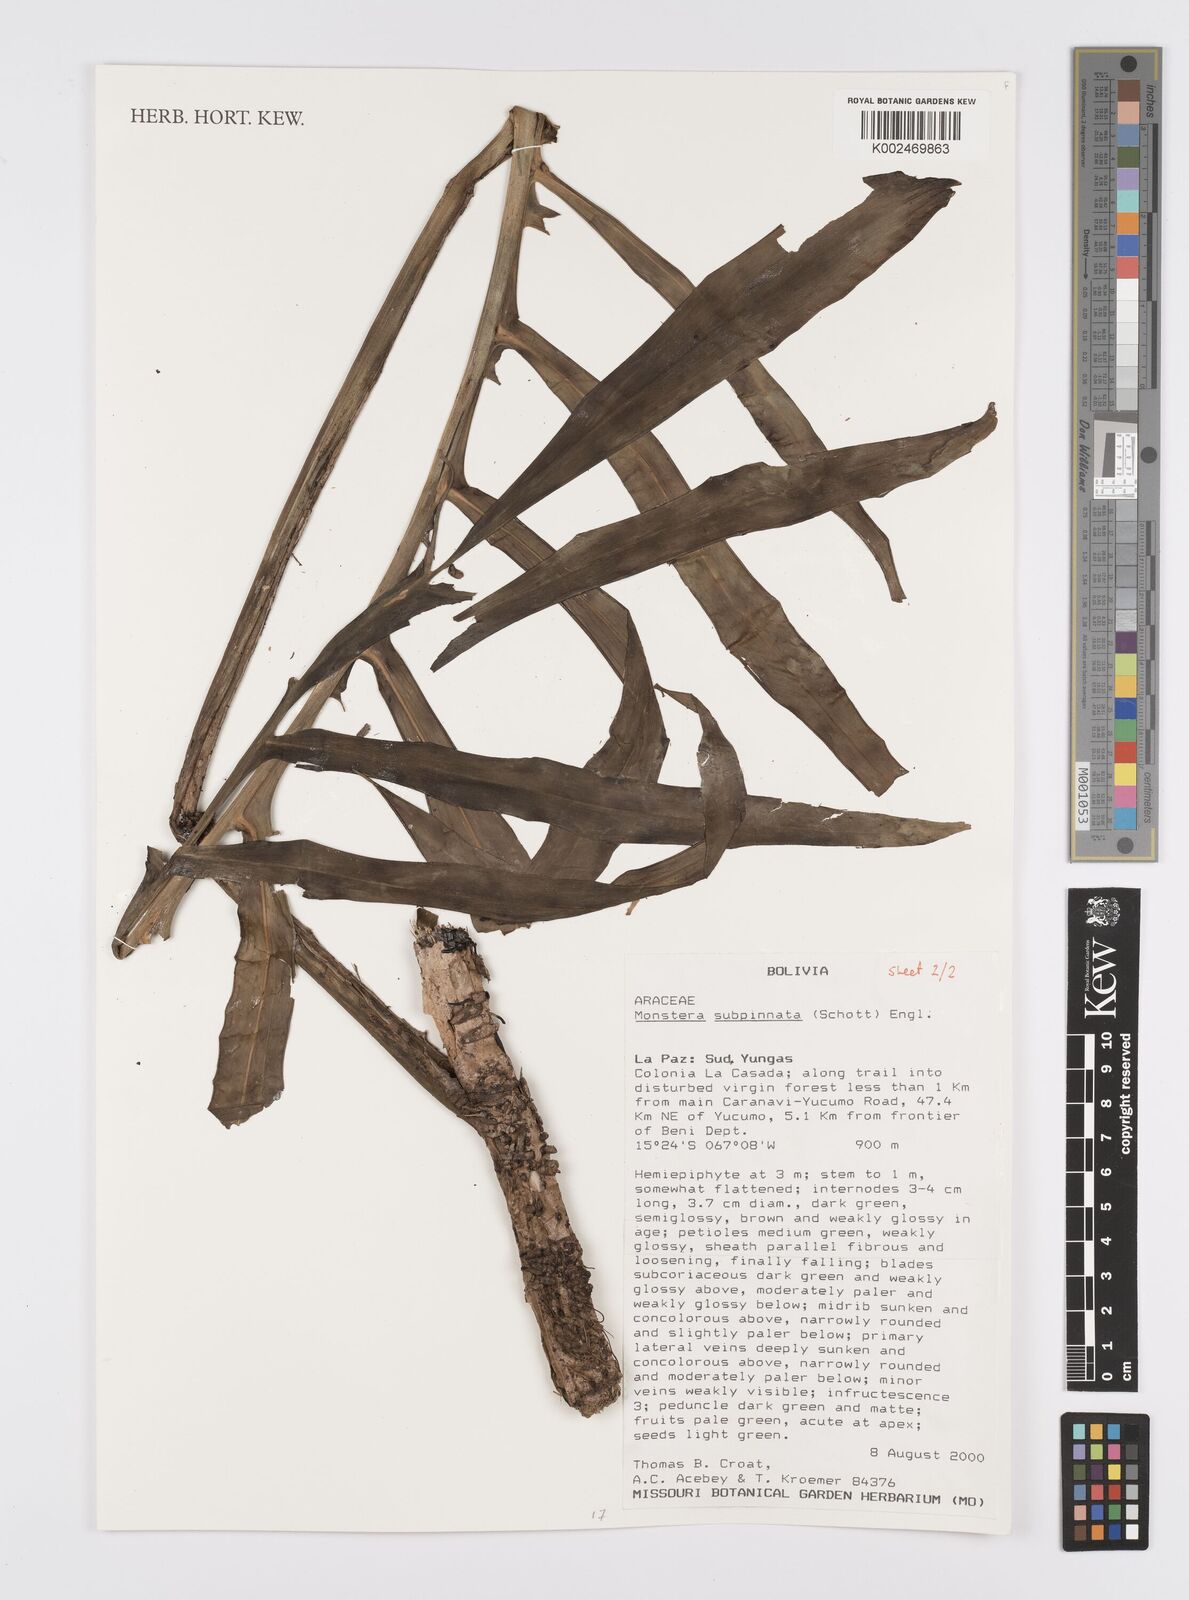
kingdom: Plantae
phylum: Tracheophyta
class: Liliopsida
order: Alismatales
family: Araceae
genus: Monstera
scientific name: Monstera subpinnata
